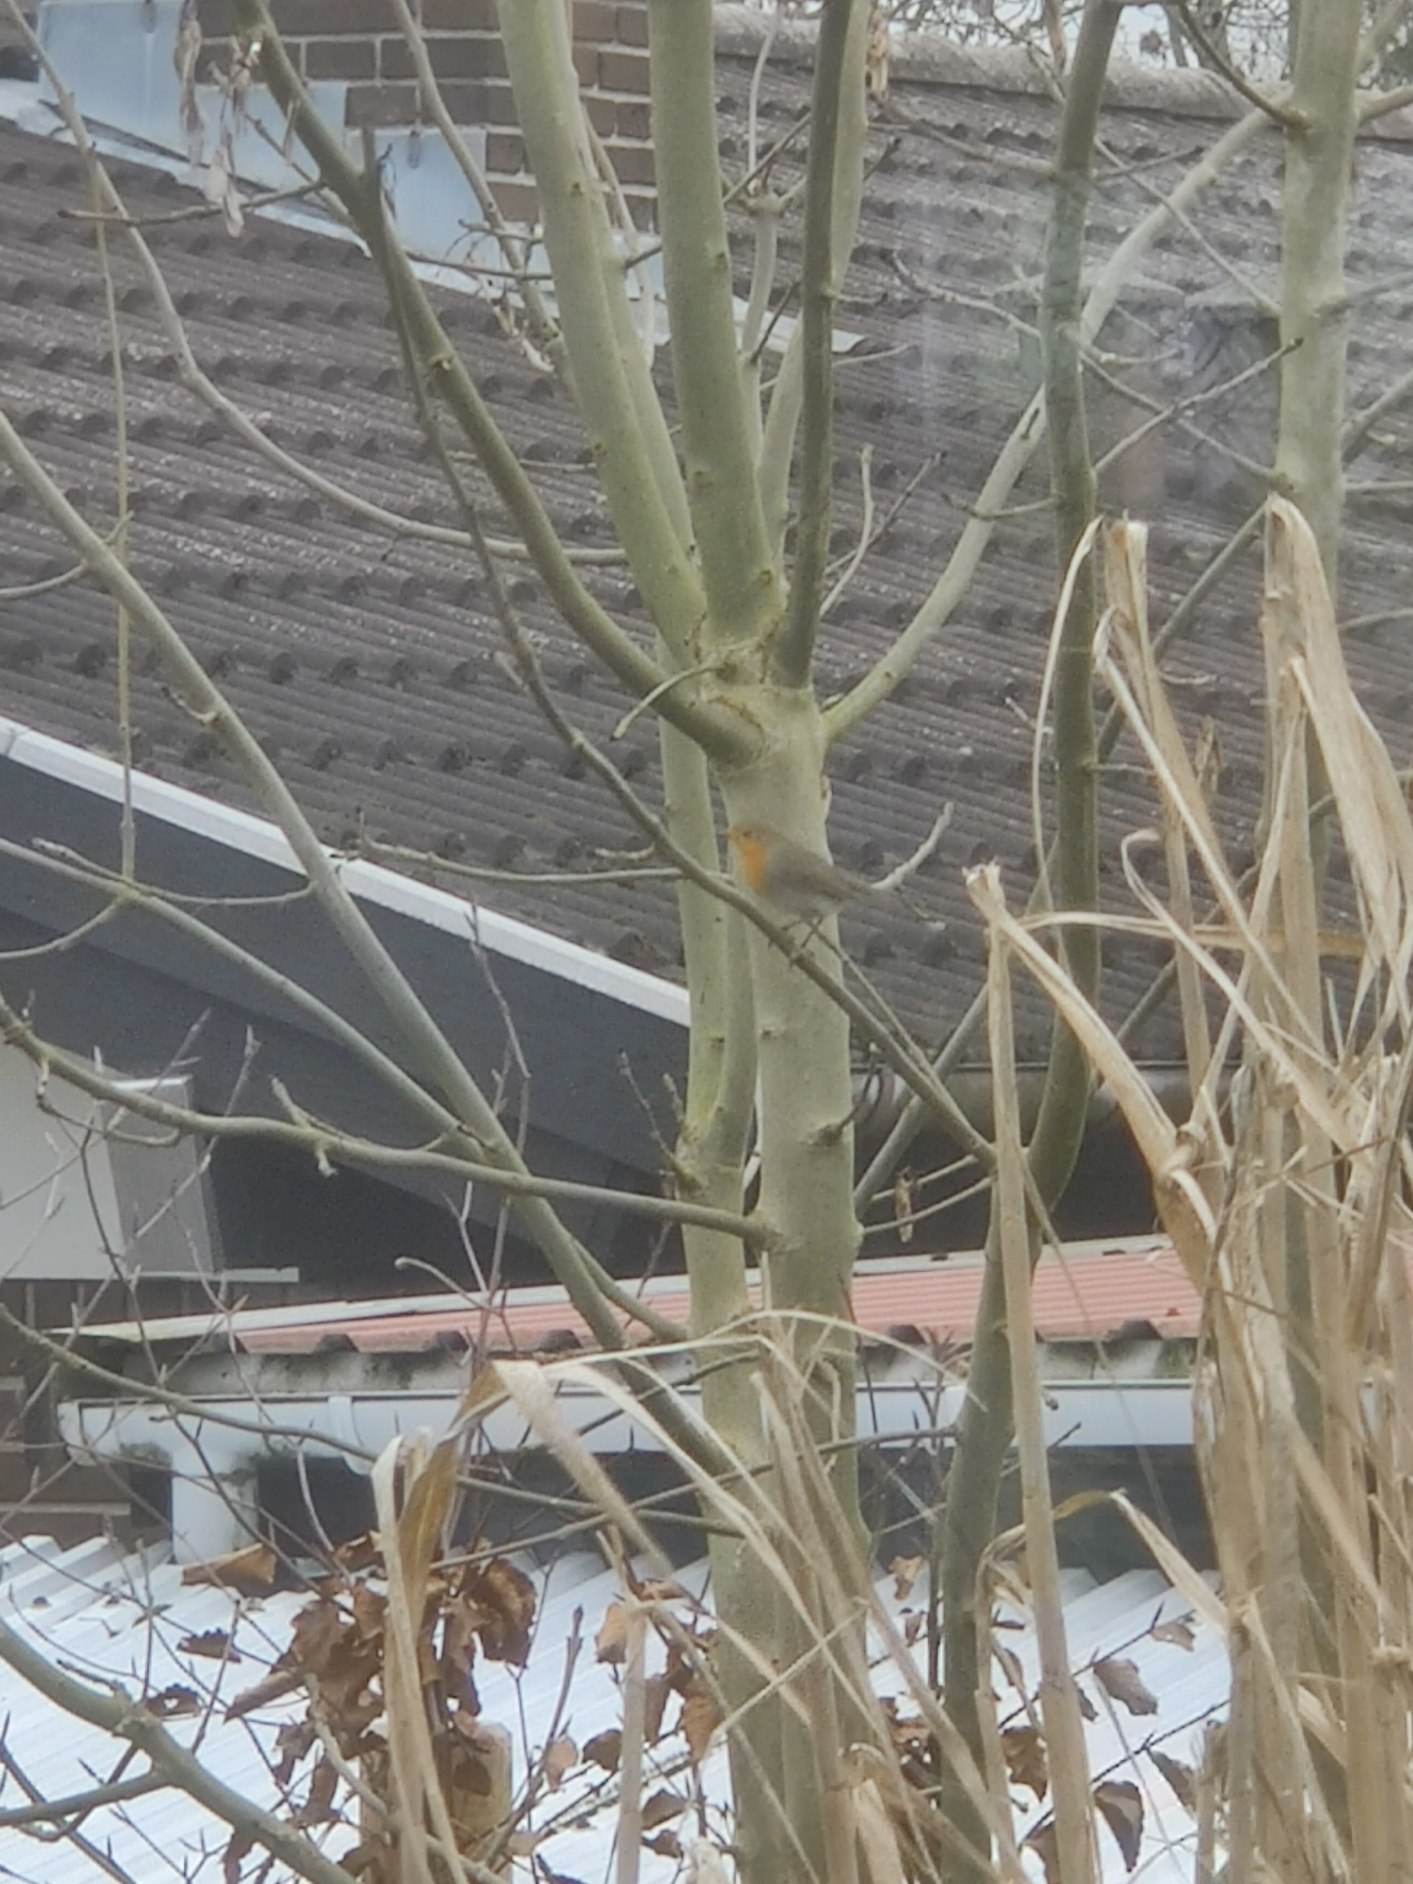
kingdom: Animalia
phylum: Chordata
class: Aves
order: Passeriformes
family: Muscicapidae
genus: Erithacus
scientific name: Erithacus rubecula
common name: Rødhals/rødkælk
